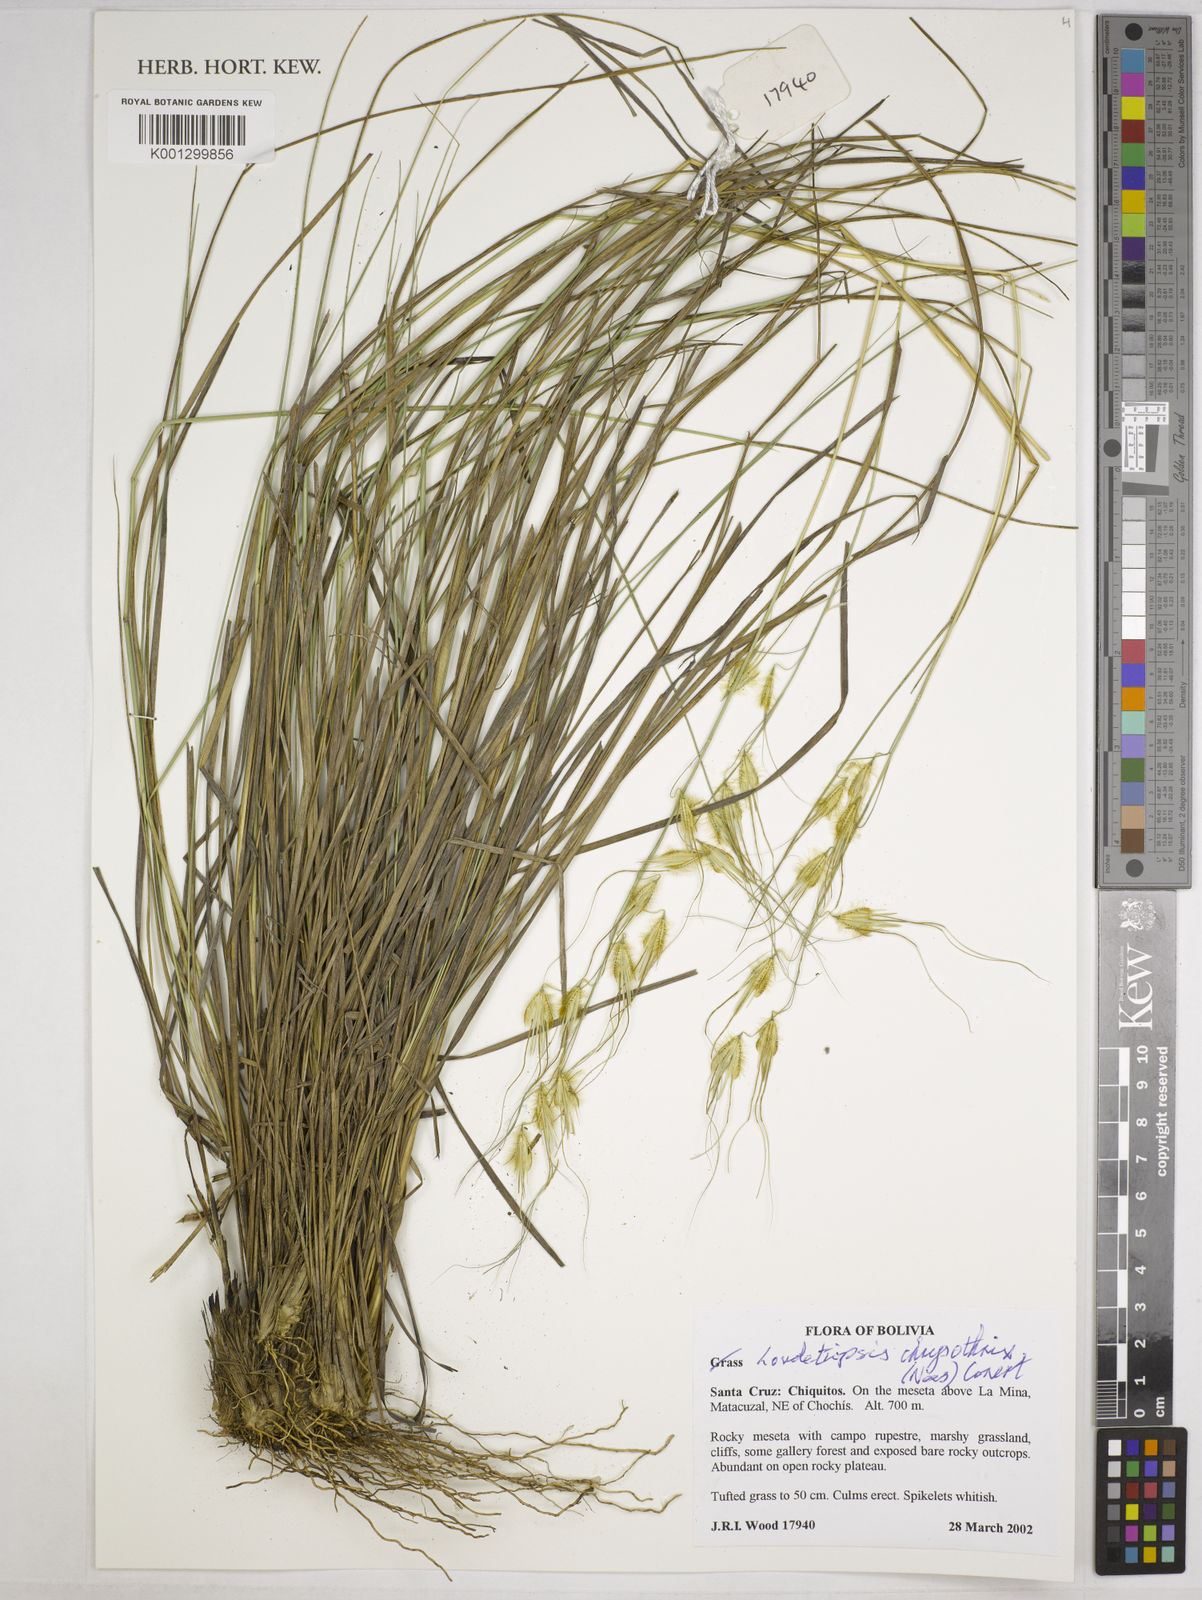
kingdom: Plantae
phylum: Tracheophyta
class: Liliopsida
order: Poales
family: Poaceae
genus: Loudetiopsis
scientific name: Loudetiopsis chrysothrix
